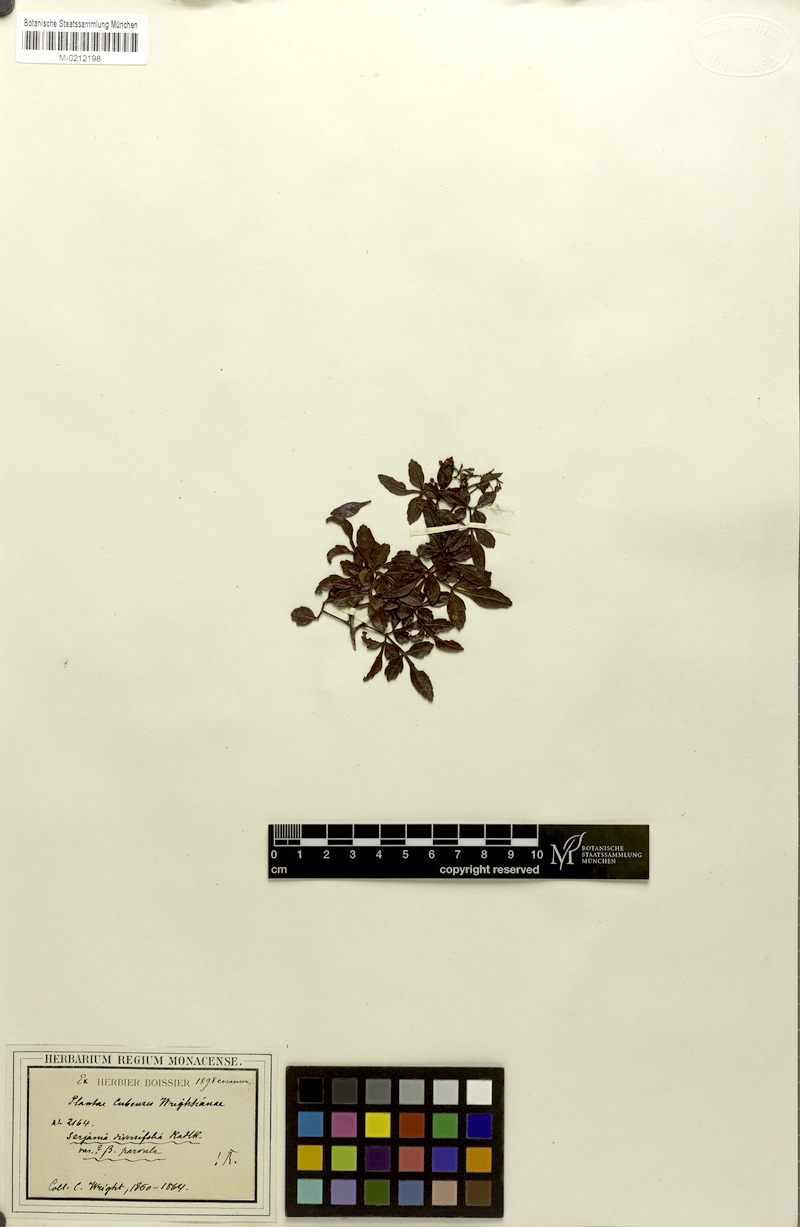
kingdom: Plantae
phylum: Tracheophyta
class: Magnoliopsida
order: Sapindales
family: Sapindaceae
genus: Serjania
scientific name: Serjania diversifolia
